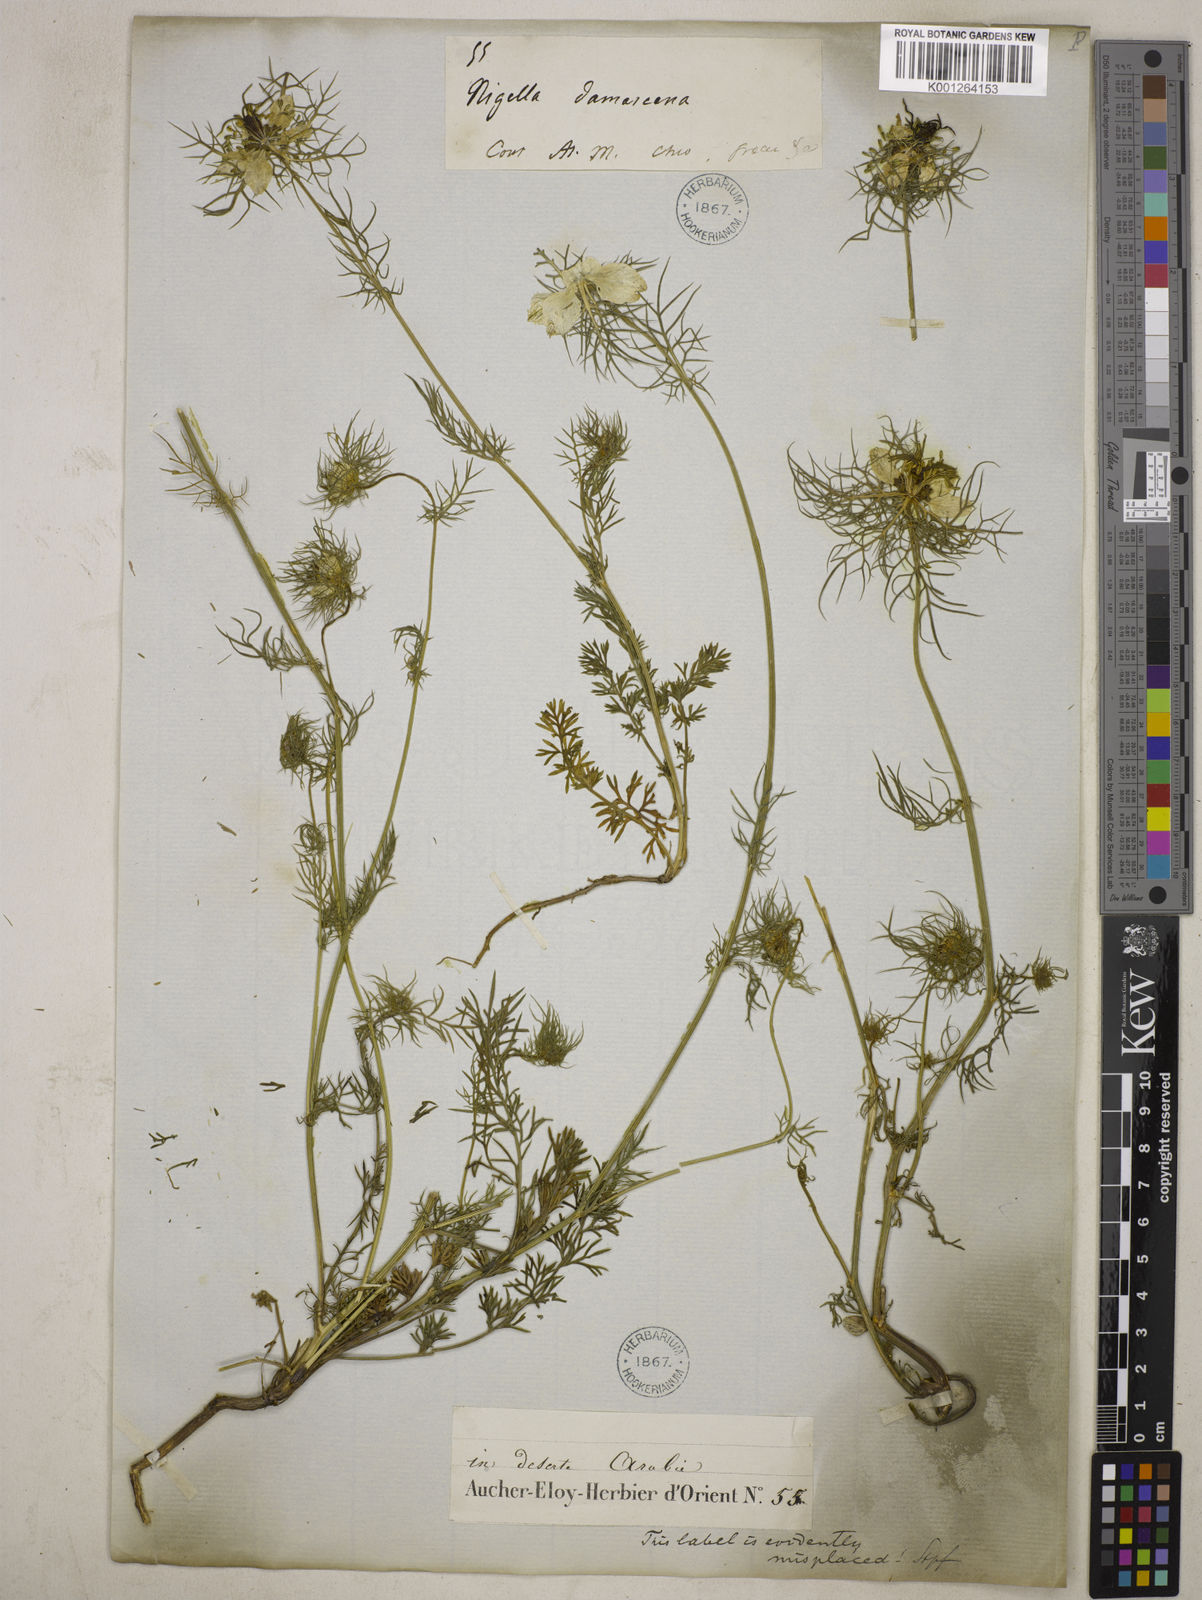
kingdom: Plantae
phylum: Tracheophyta
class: Magnoliopsida
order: Ranunculales
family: Ranunculaceae
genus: Nigella
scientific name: Nigella damascena
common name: Love-in-a-mist
